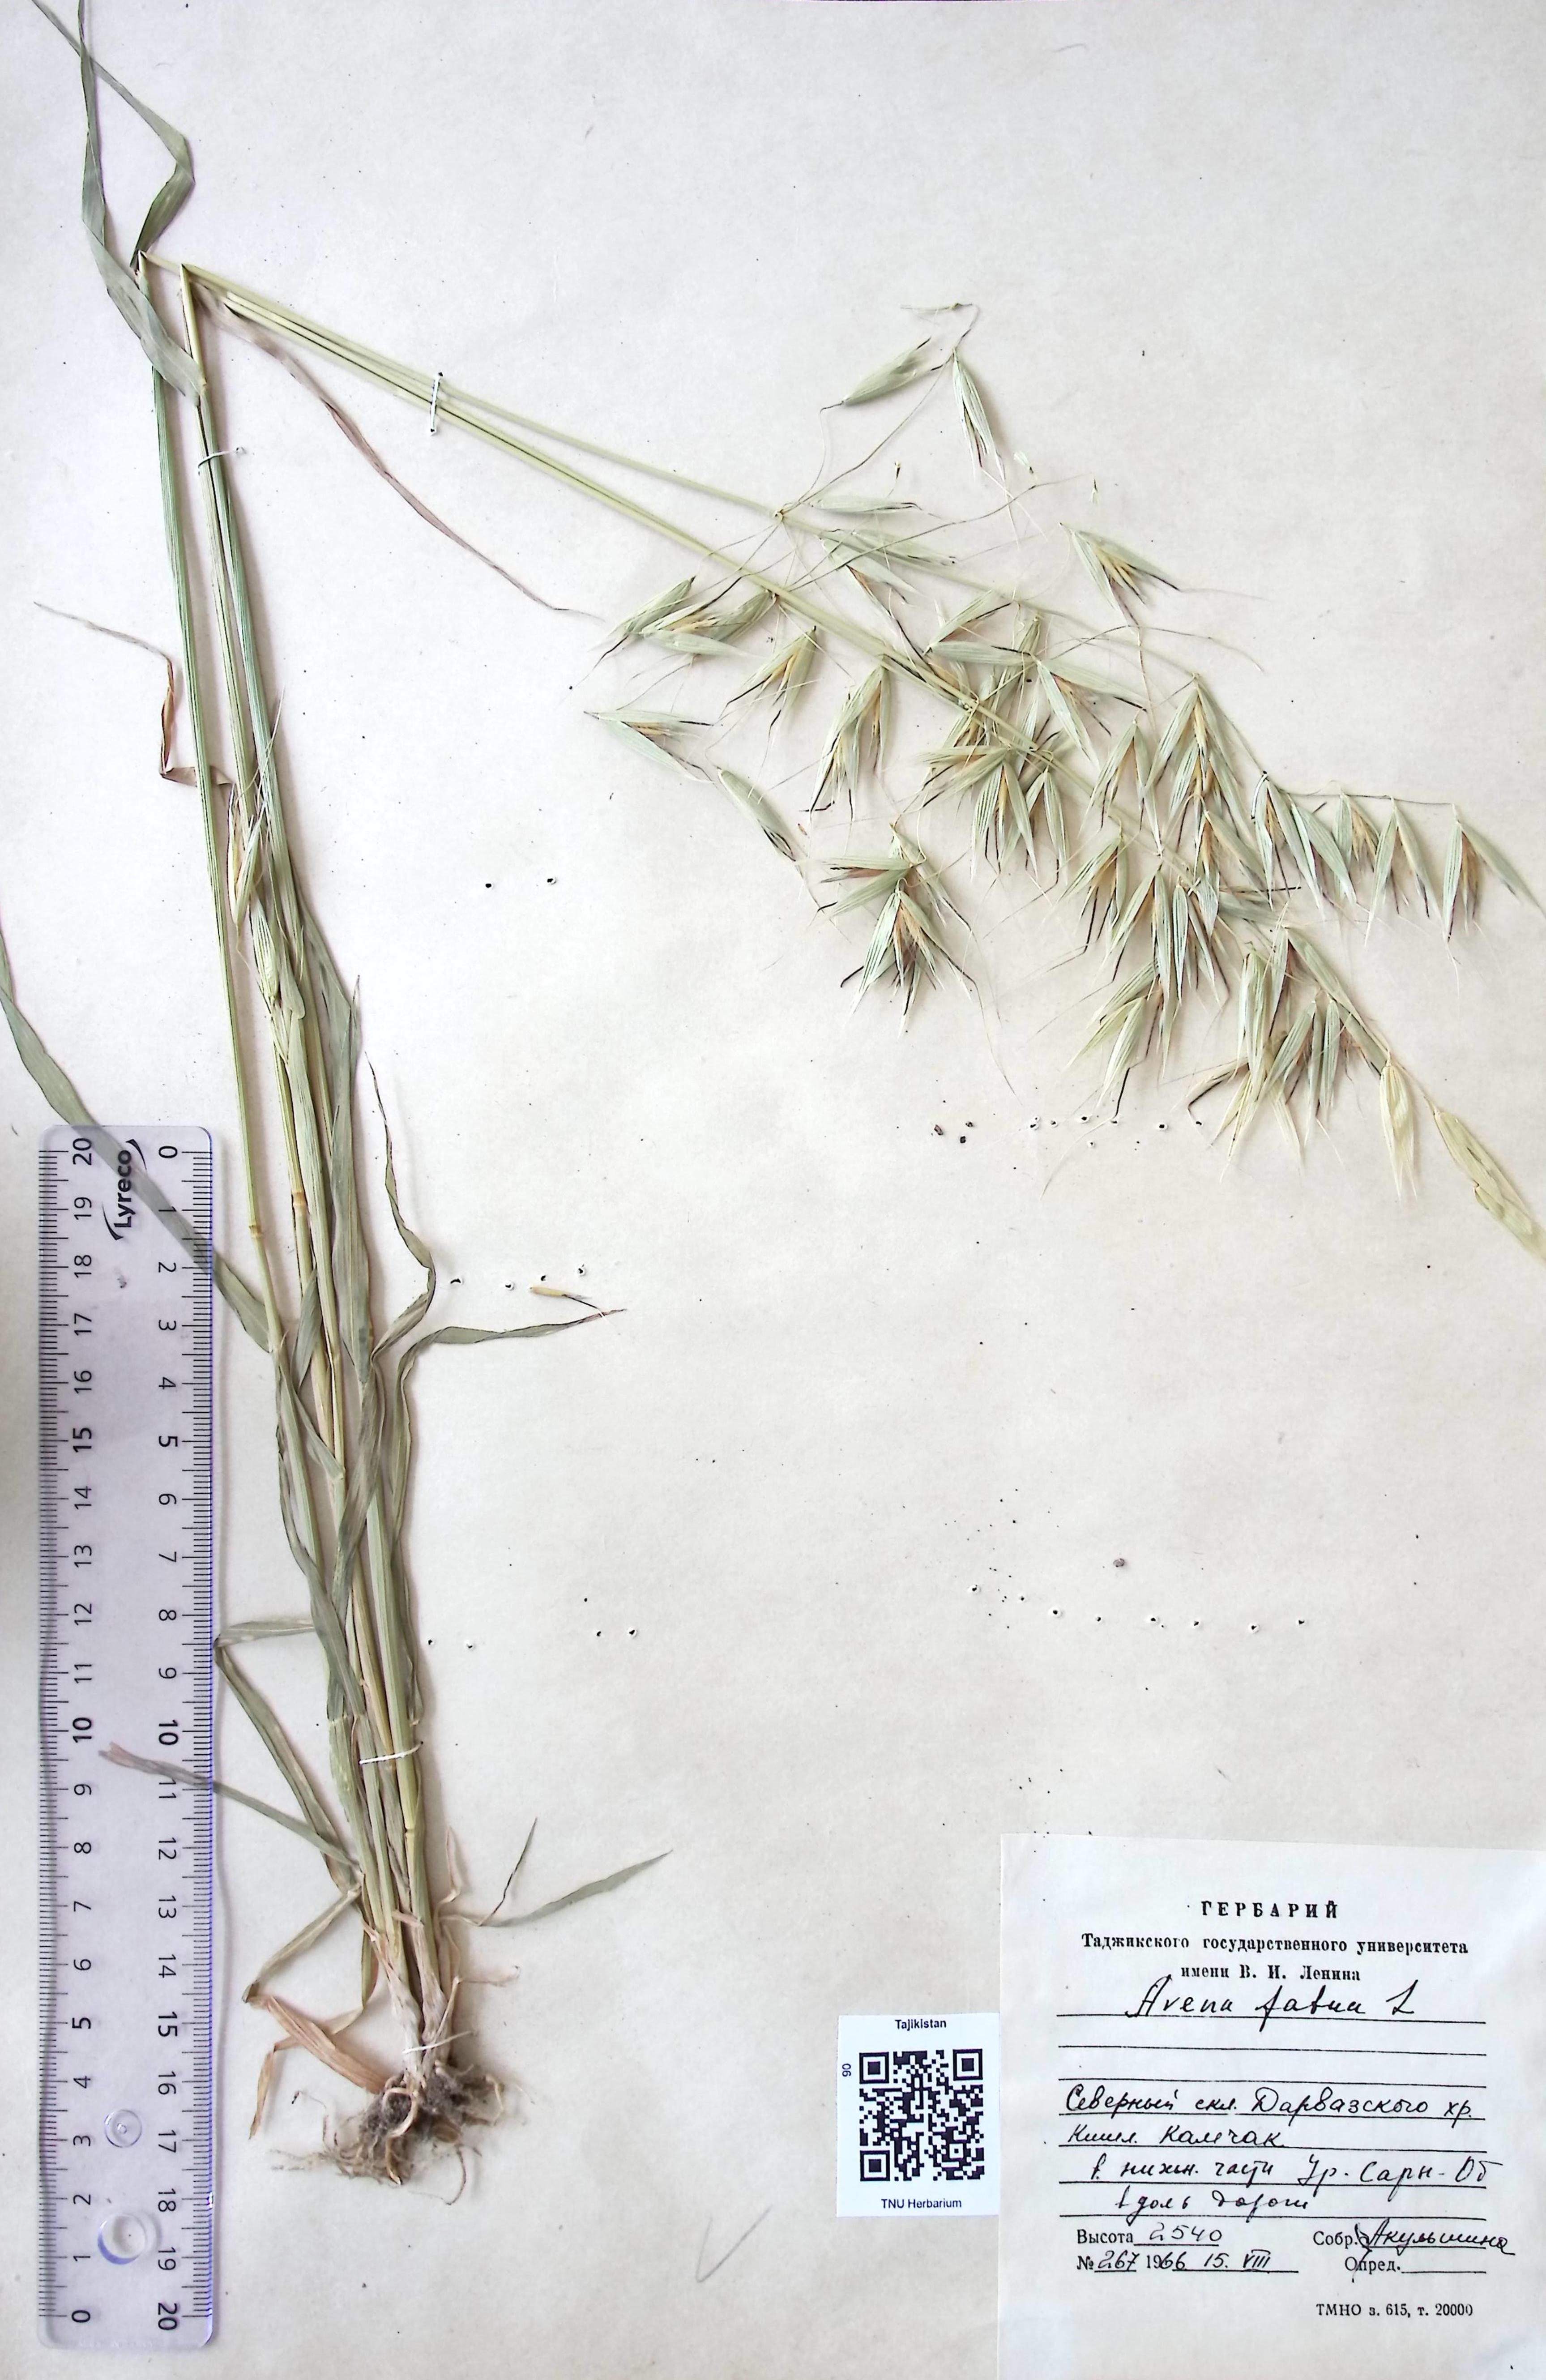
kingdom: Plantae
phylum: Tracheophyta
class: Liliopsida
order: Poales
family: Poaceae
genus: Avena
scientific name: Avena fatua
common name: Wild oat
